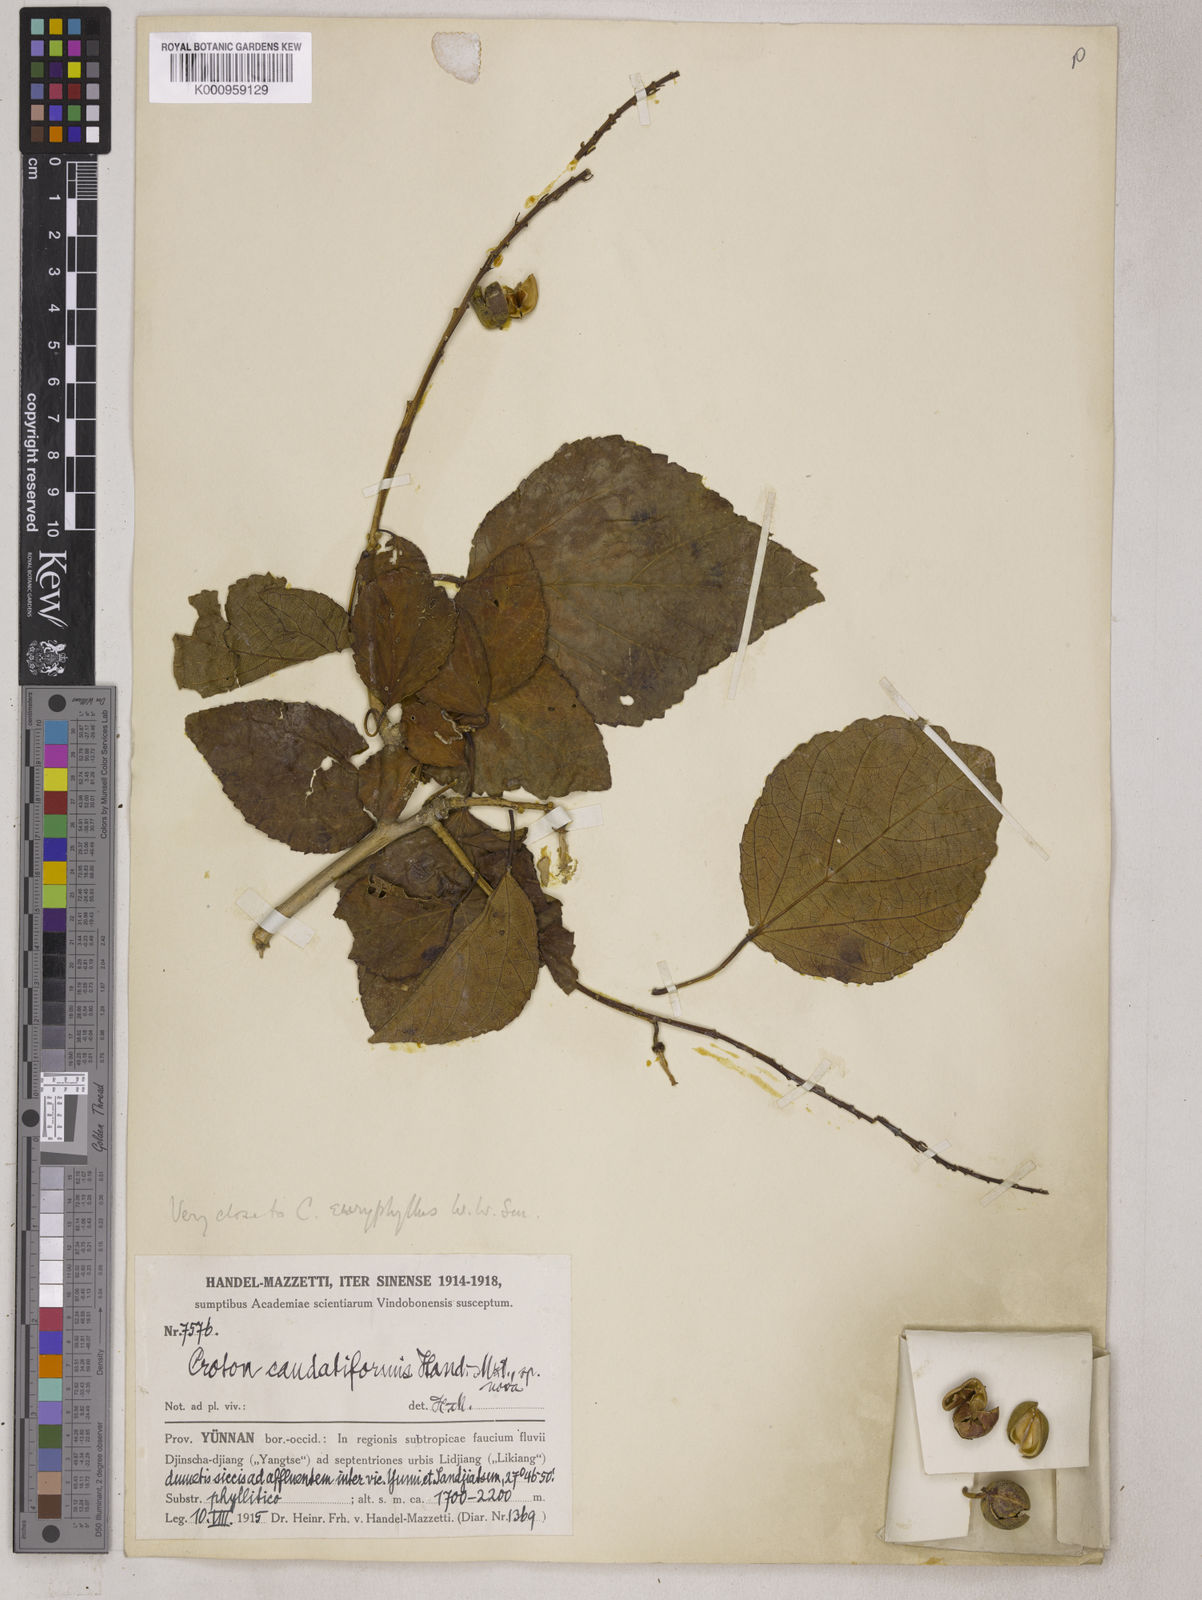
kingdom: Plantae
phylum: Tracheophyta
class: Magnoliopsida
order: Malpighiales
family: Euphorbiaceae
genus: Croton
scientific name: Croton euryphyllus
